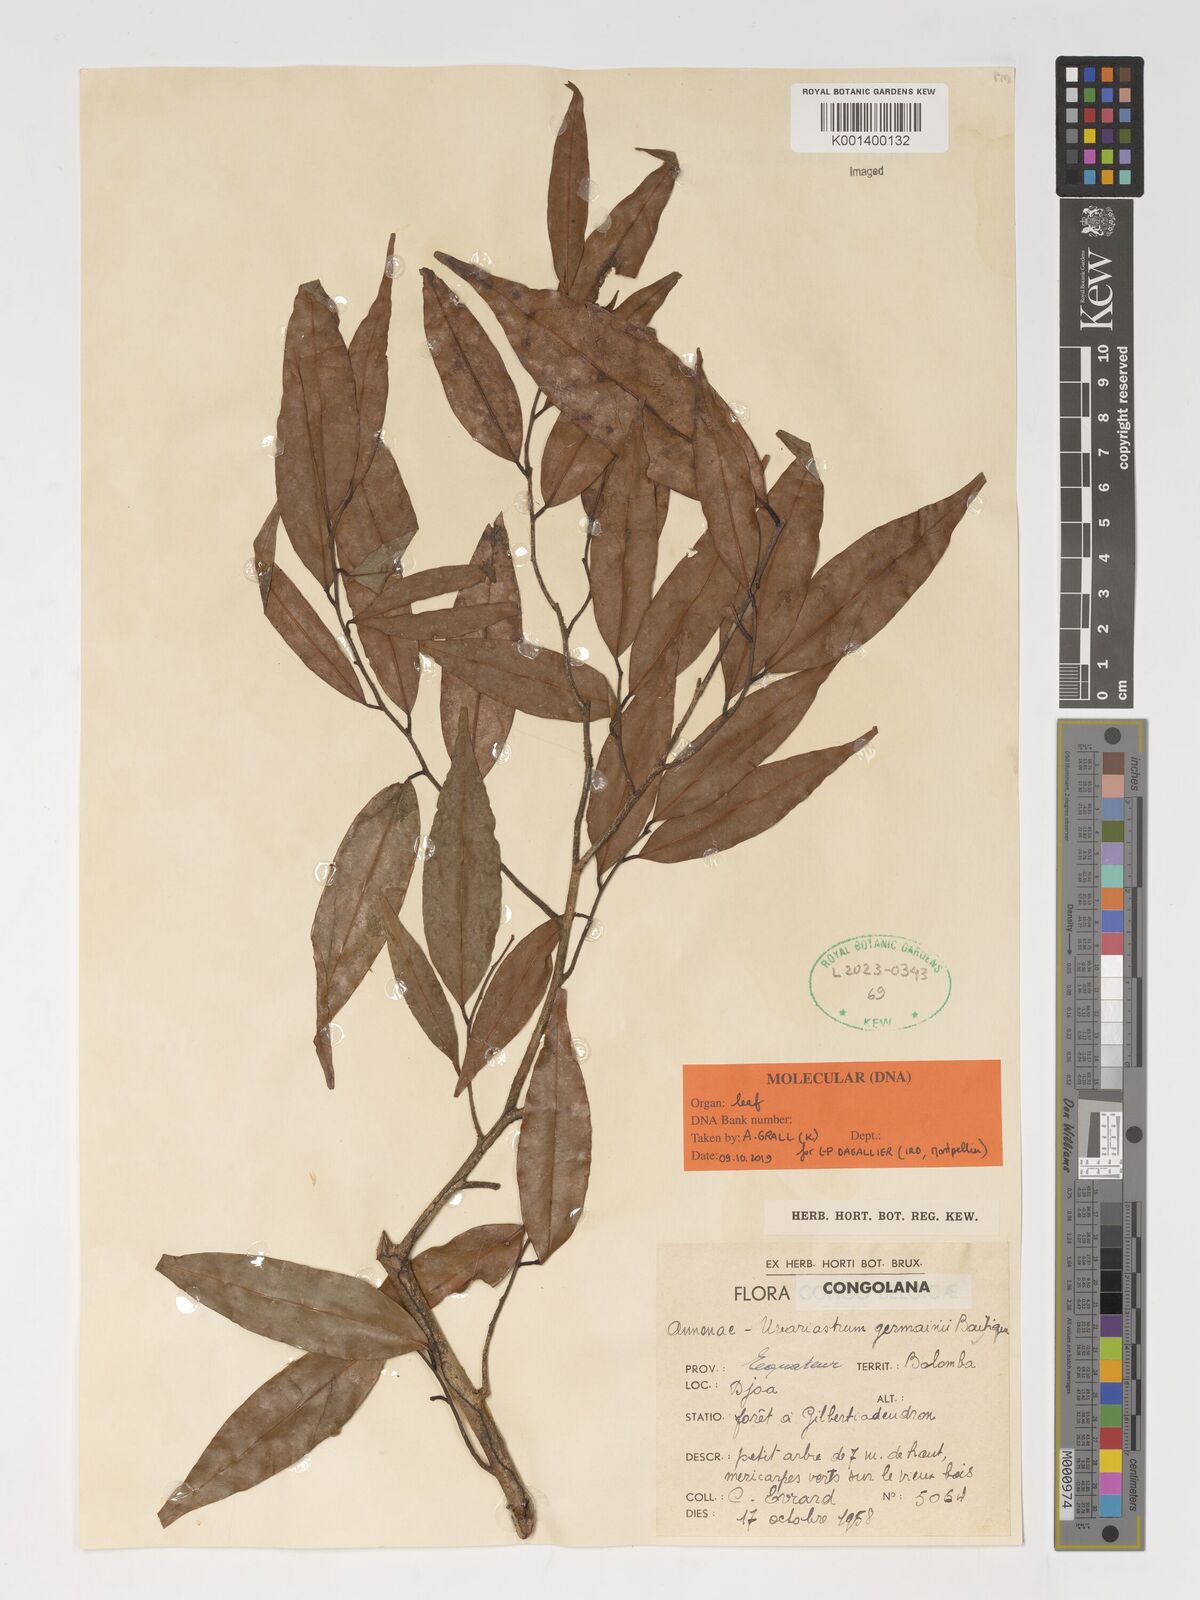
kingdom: Plantae
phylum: Tracheophyta
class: Magnoliopsida
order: Magnoliales
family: Annonaceae
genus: Uvariastrum
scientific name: Uvariastrum germainii
